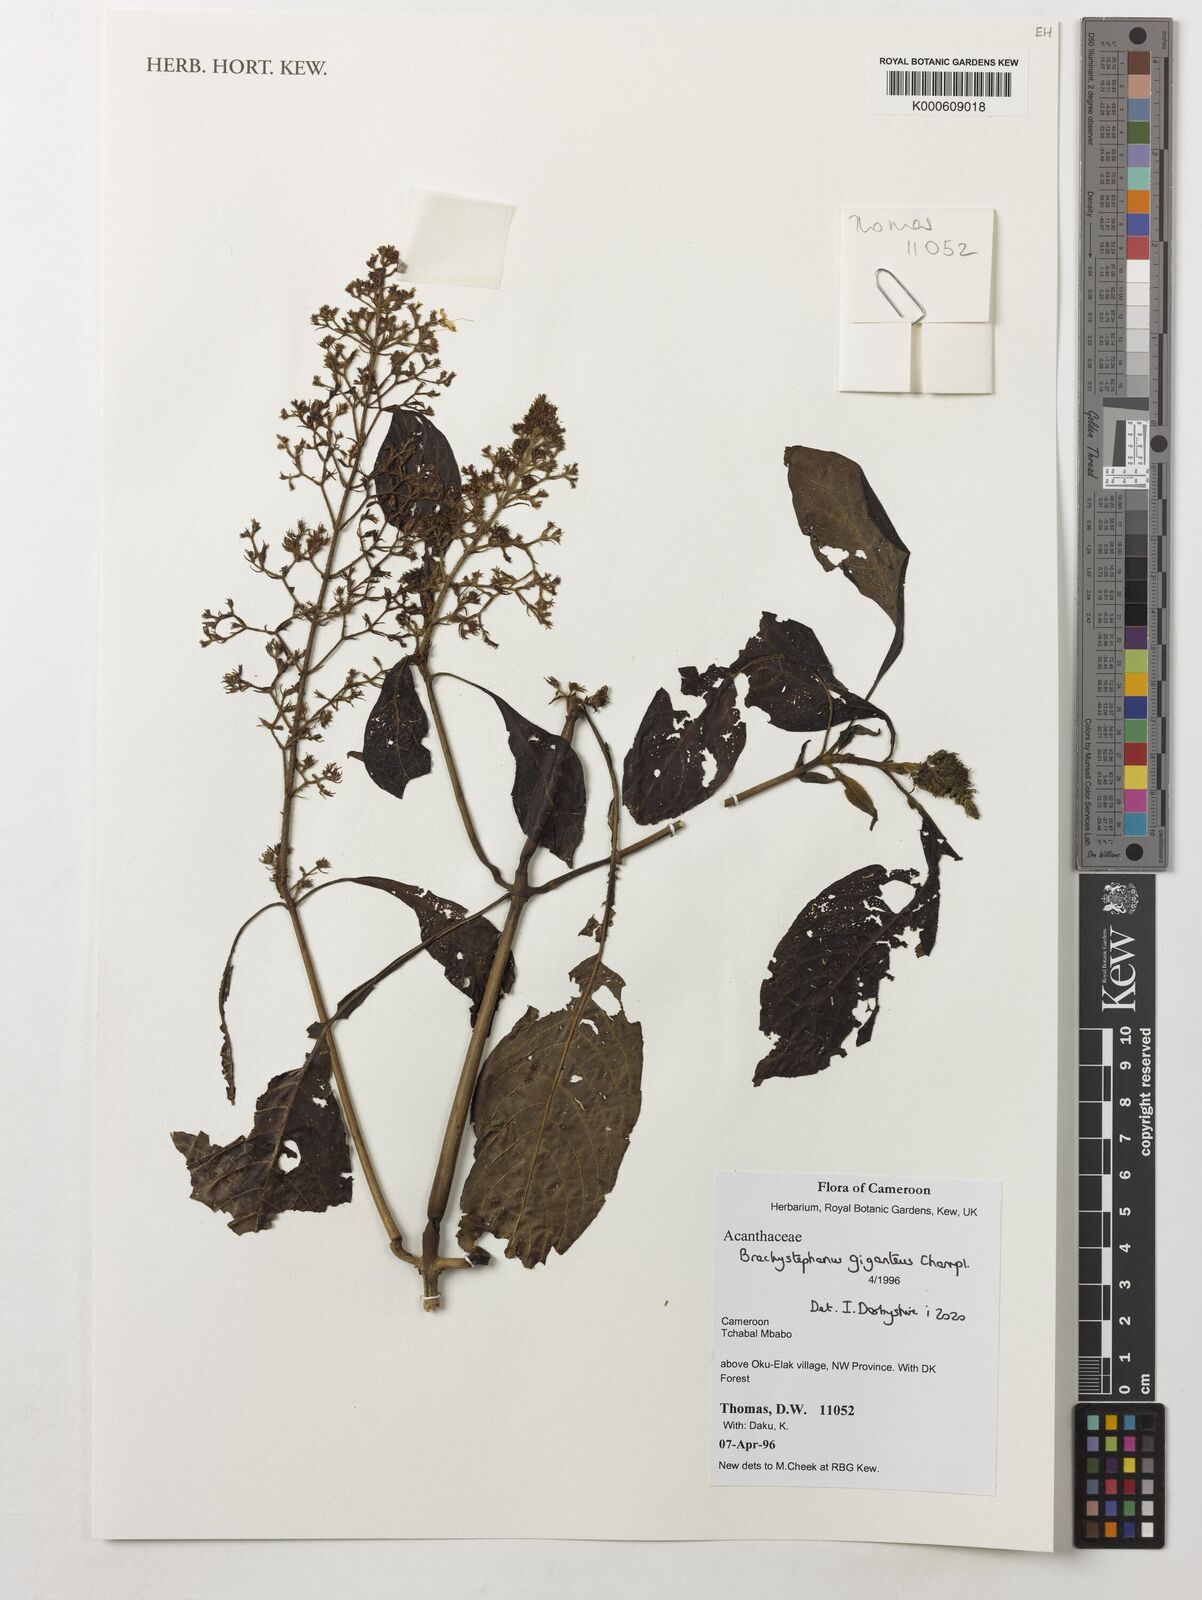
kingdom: Plantae
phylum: Tracheophyta
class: Magnoliopsida
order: Lamiales
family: Acanthaceae
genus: Brachystephanus
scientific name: Brachystephanus giganteus
